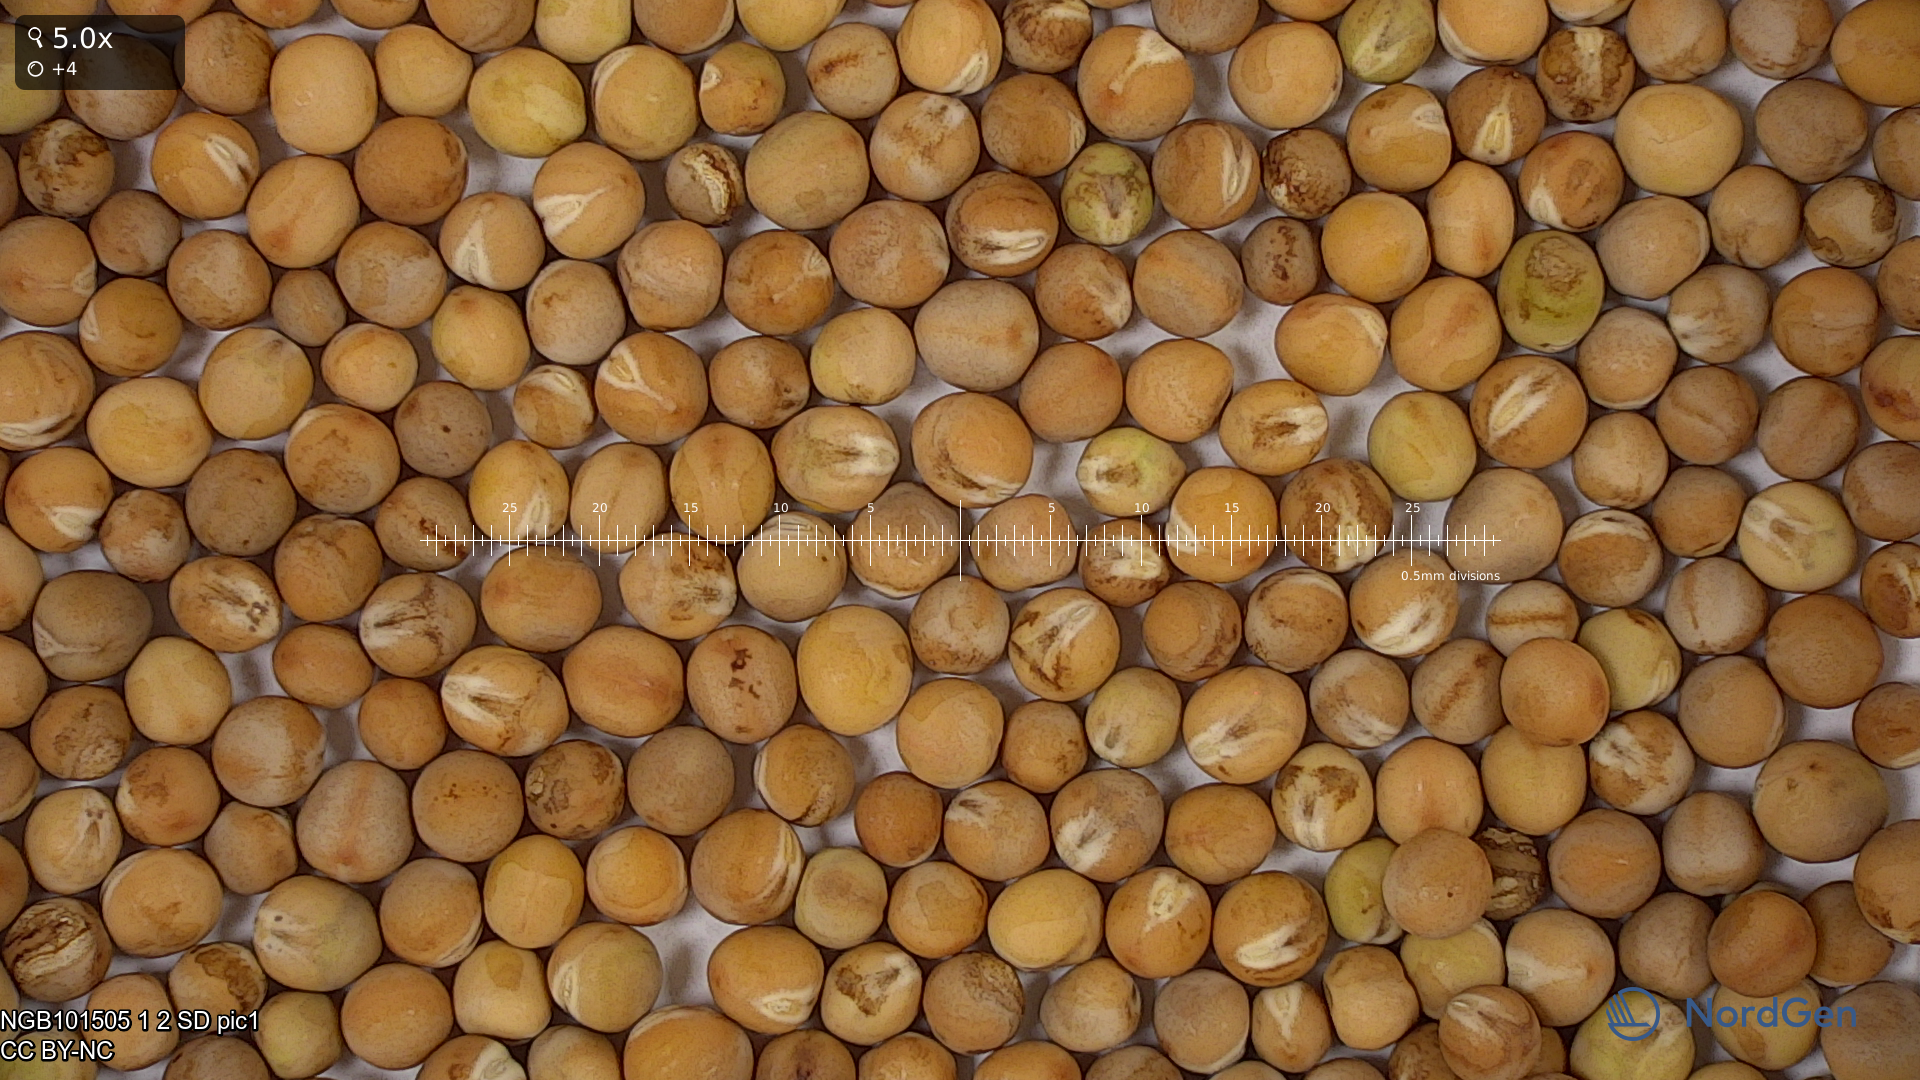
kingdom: Plantae
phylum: Tracheophyta
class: Magnoliopsida
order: Fabales
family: Fabaceae
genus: Lathyrus
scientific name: Lathyrus oleraceus
